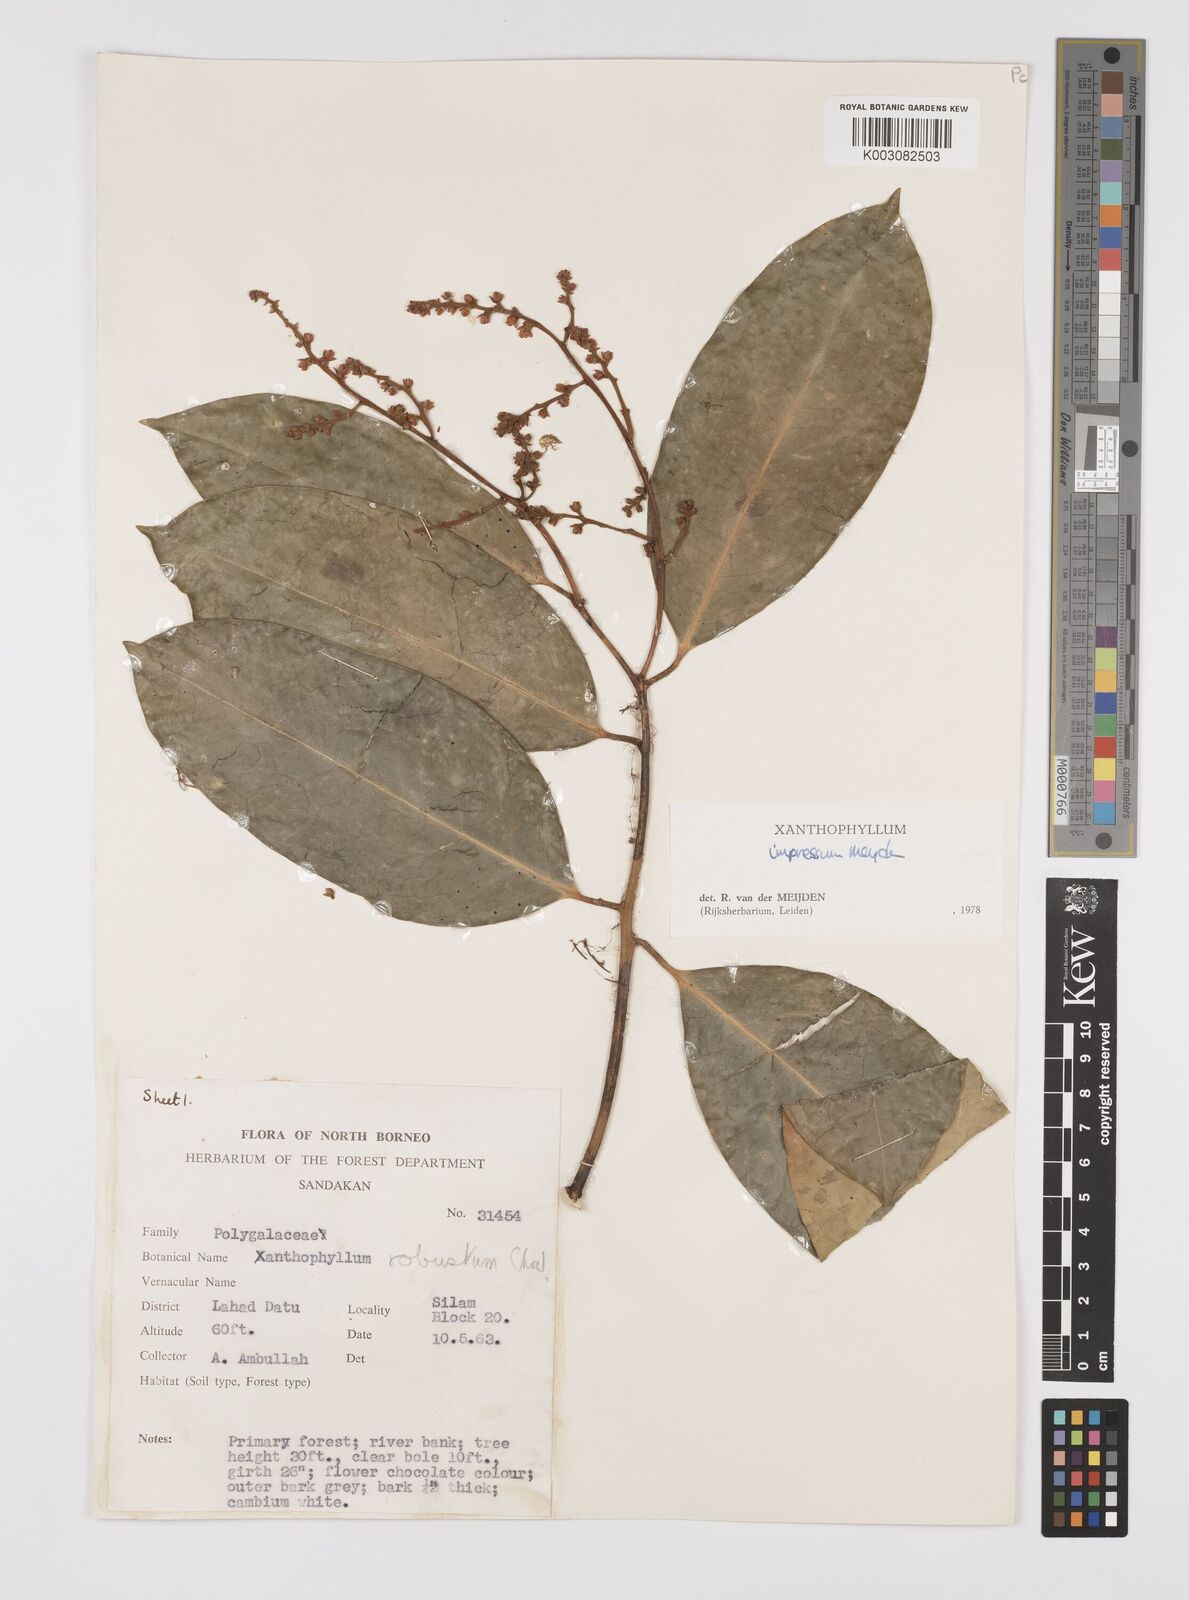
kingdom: Plantae
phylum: Tracheophyta
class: Magnoliopsida
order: Fabales
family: Polygalaceae
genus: Xanthophyllum
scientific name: Xanthophyllum impressum
